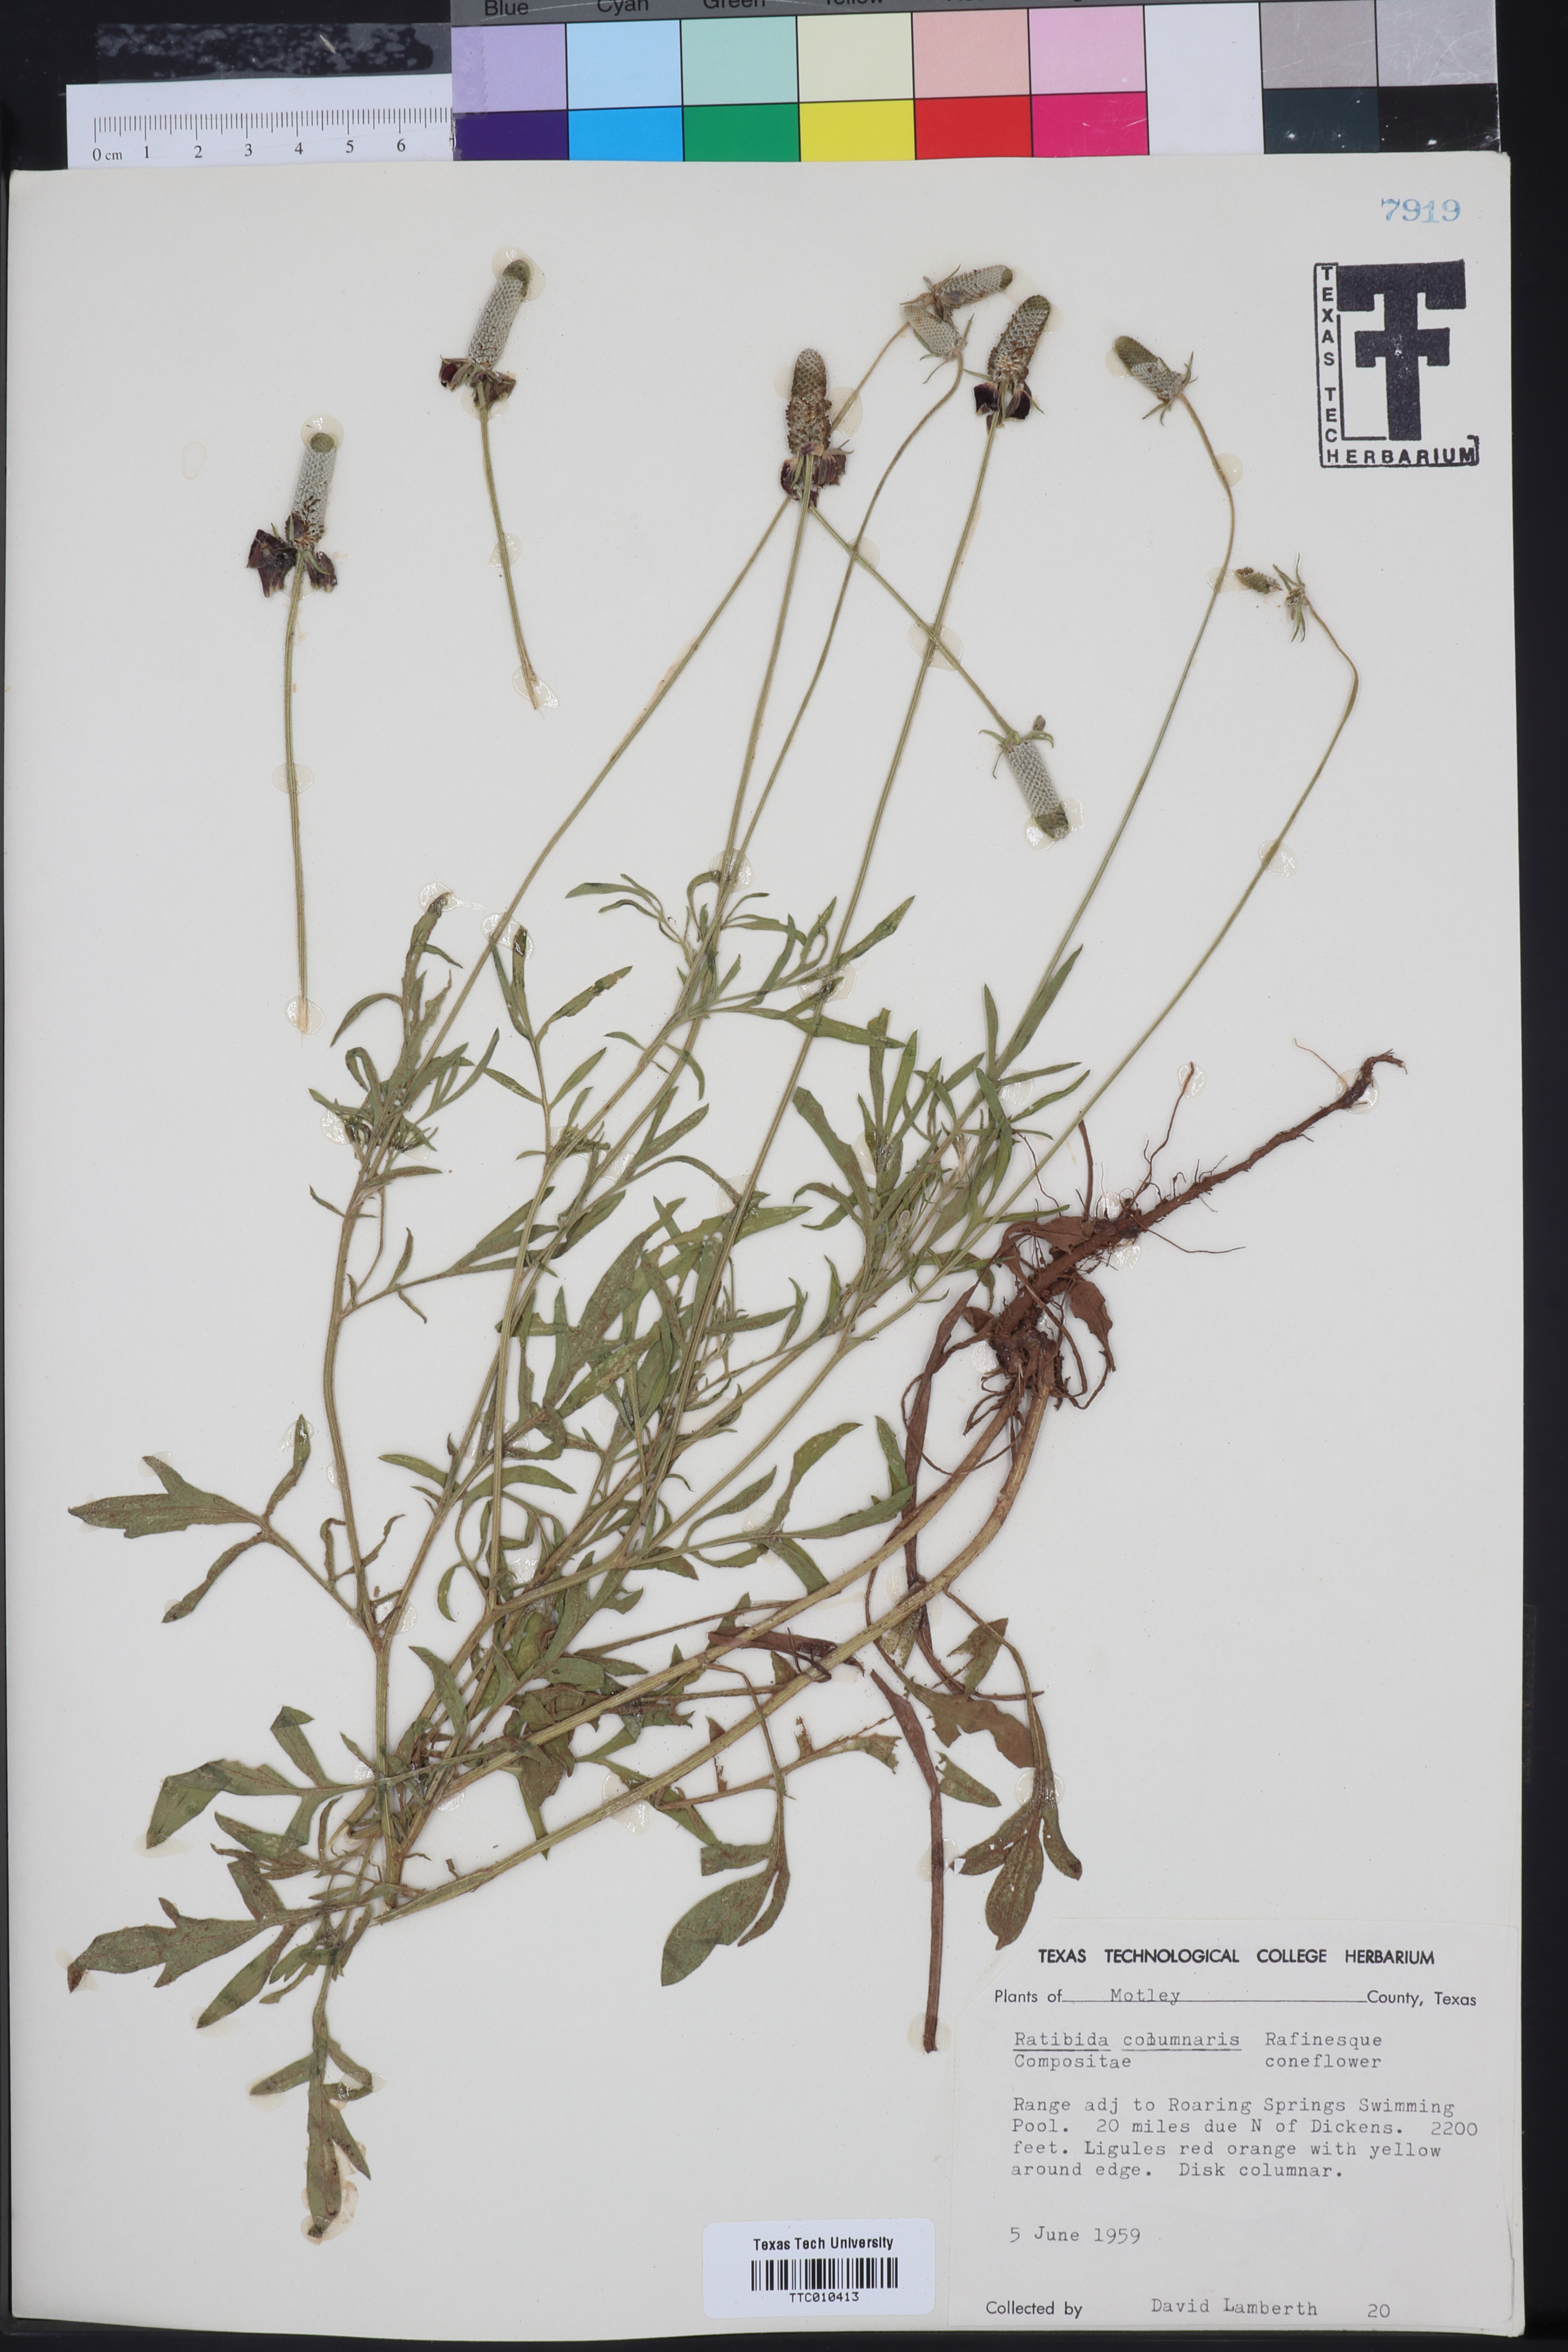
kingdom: Plantae
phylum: Tracheophyta
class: Magnoliopsida
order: Asterales
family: Asteraceae
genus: Ratibida
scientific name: Ratibida columnifera
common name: Prairie coneflower
